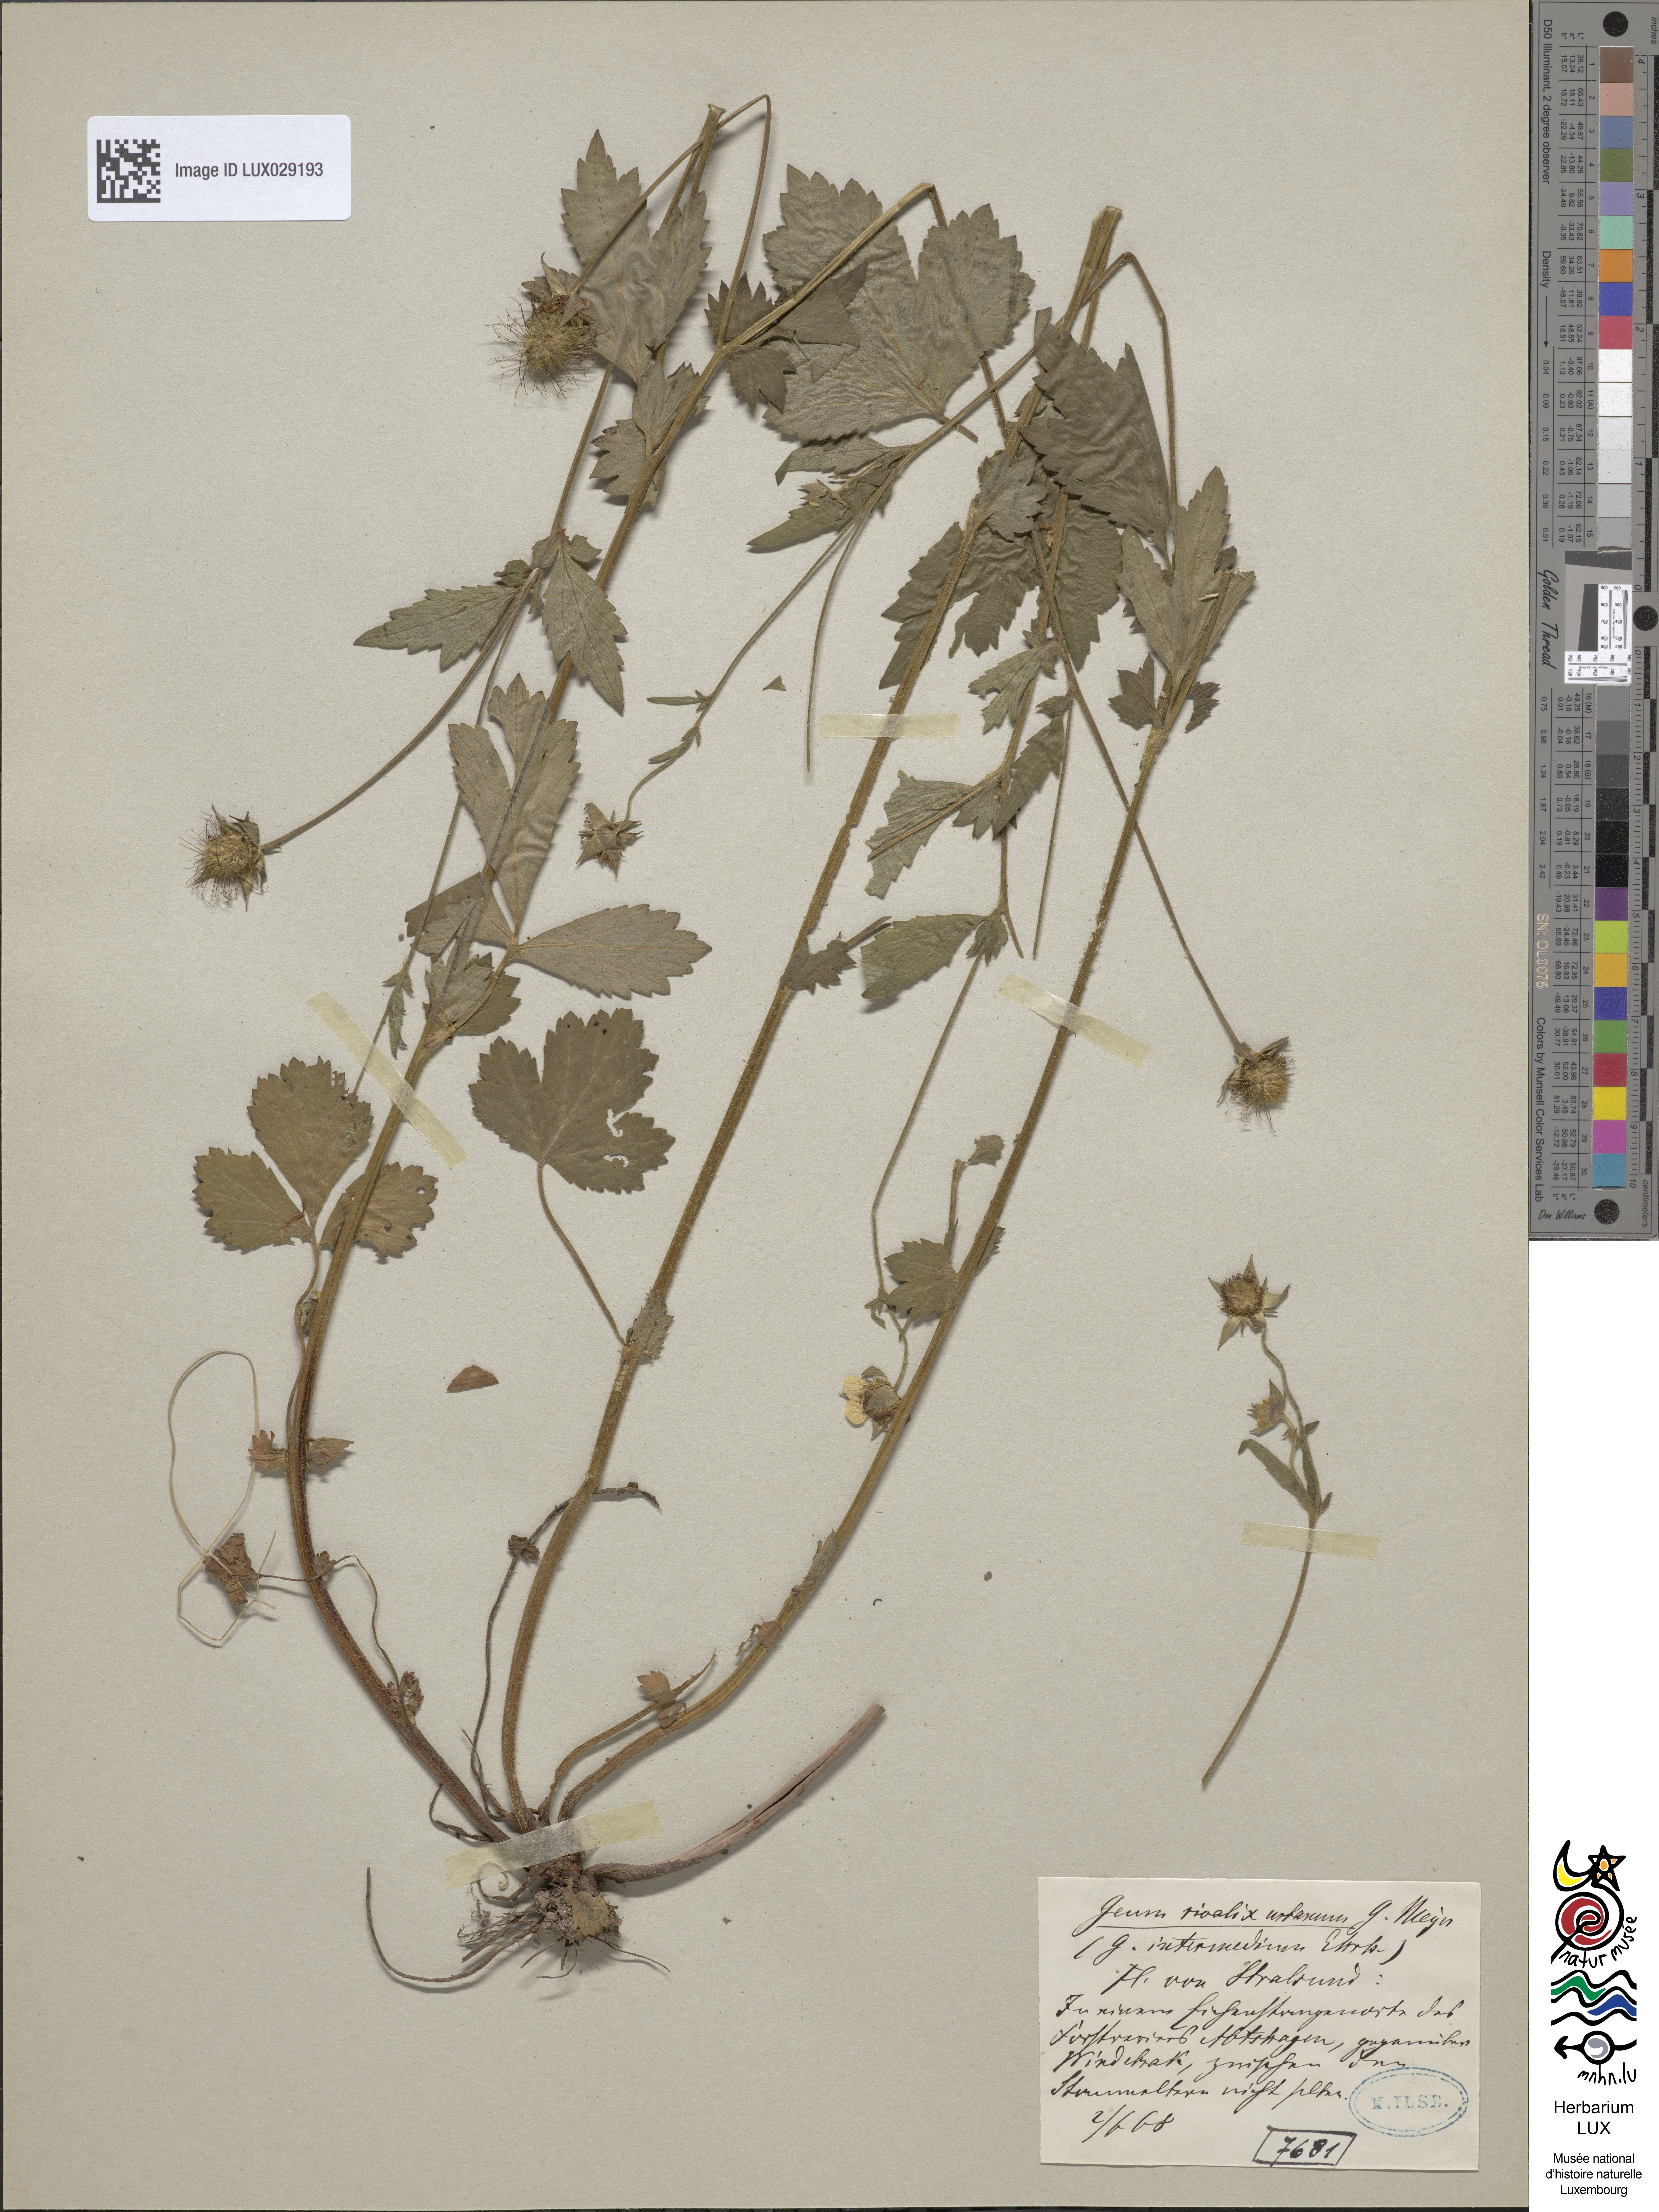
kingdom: Plantae
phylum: Tracheophyta
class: Magnoliopsida
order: Rosales
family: Rosaceae
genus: Geum
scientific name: Geum intermedium
